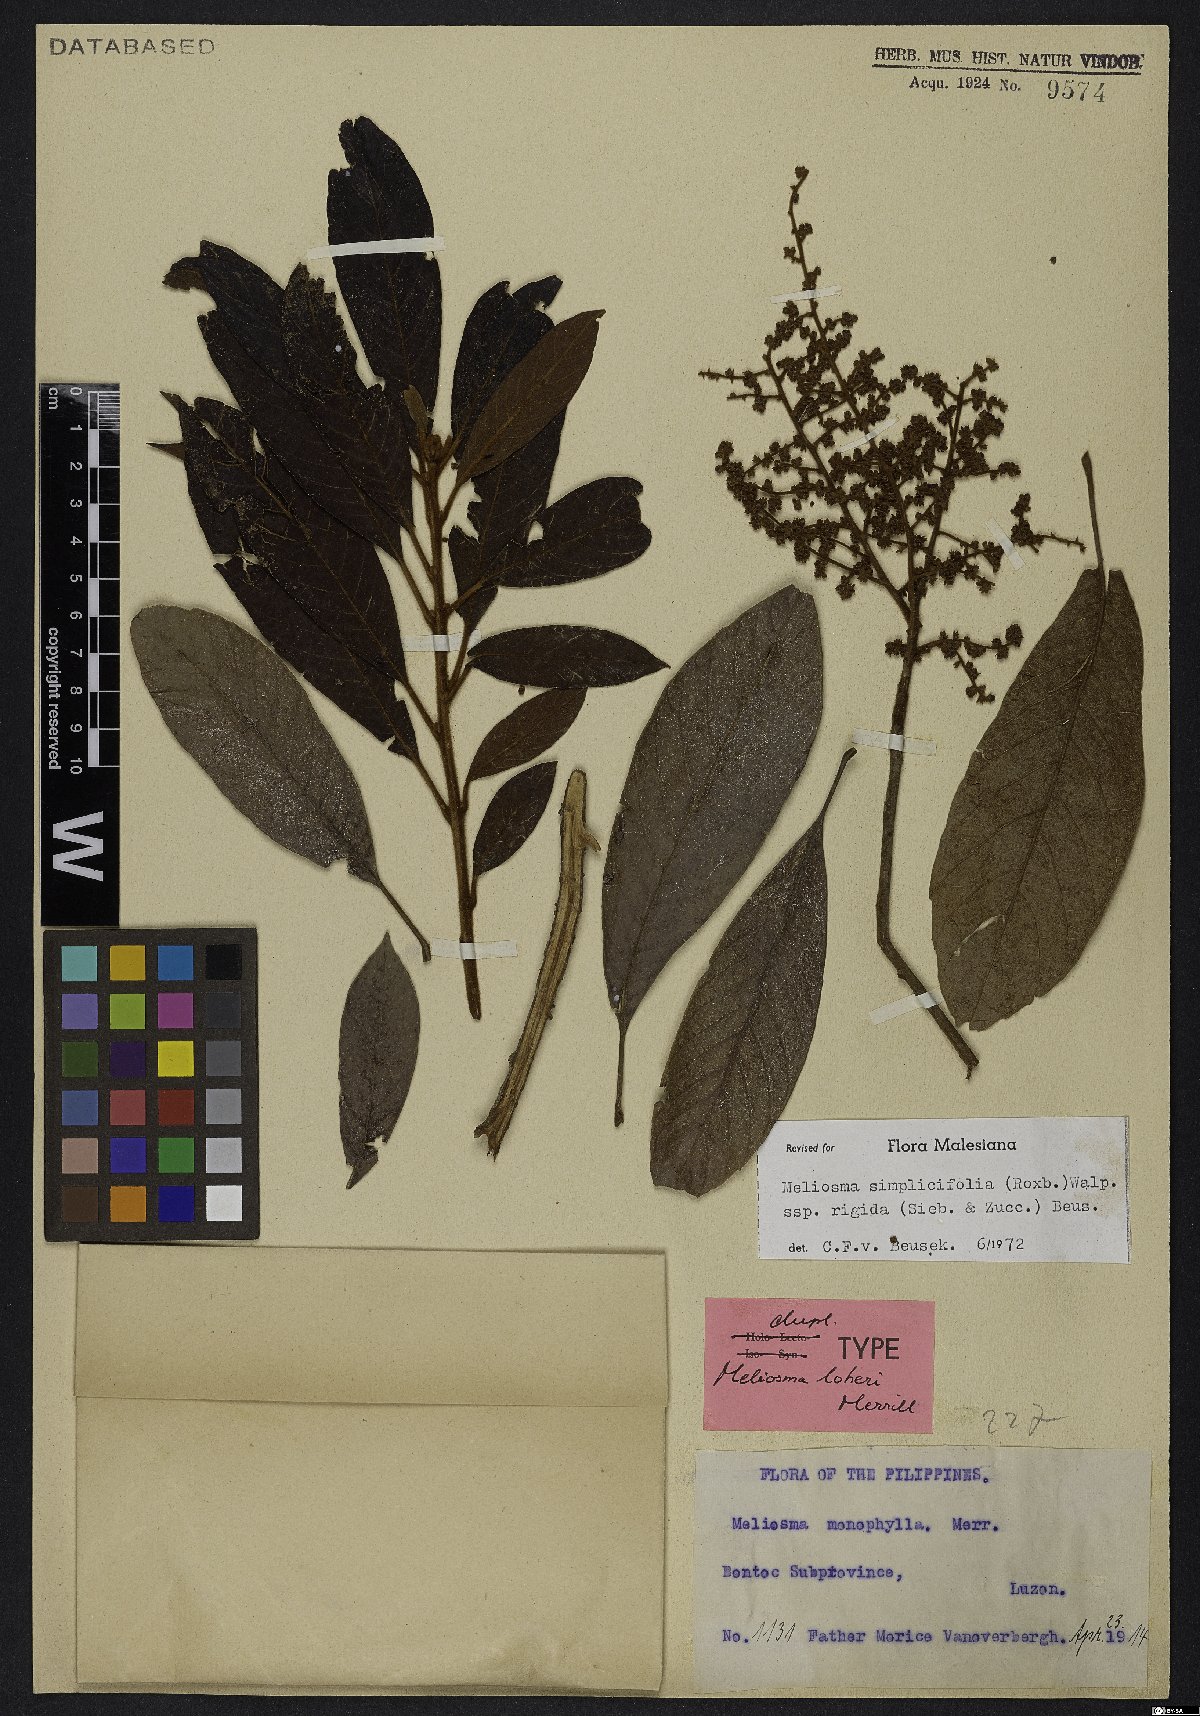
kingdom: Plantae
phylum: Tracheophyta
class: Magnoliopsida
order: Proteales
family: Sabiaceae
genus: Meliosma
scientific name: Meliosma rigida
